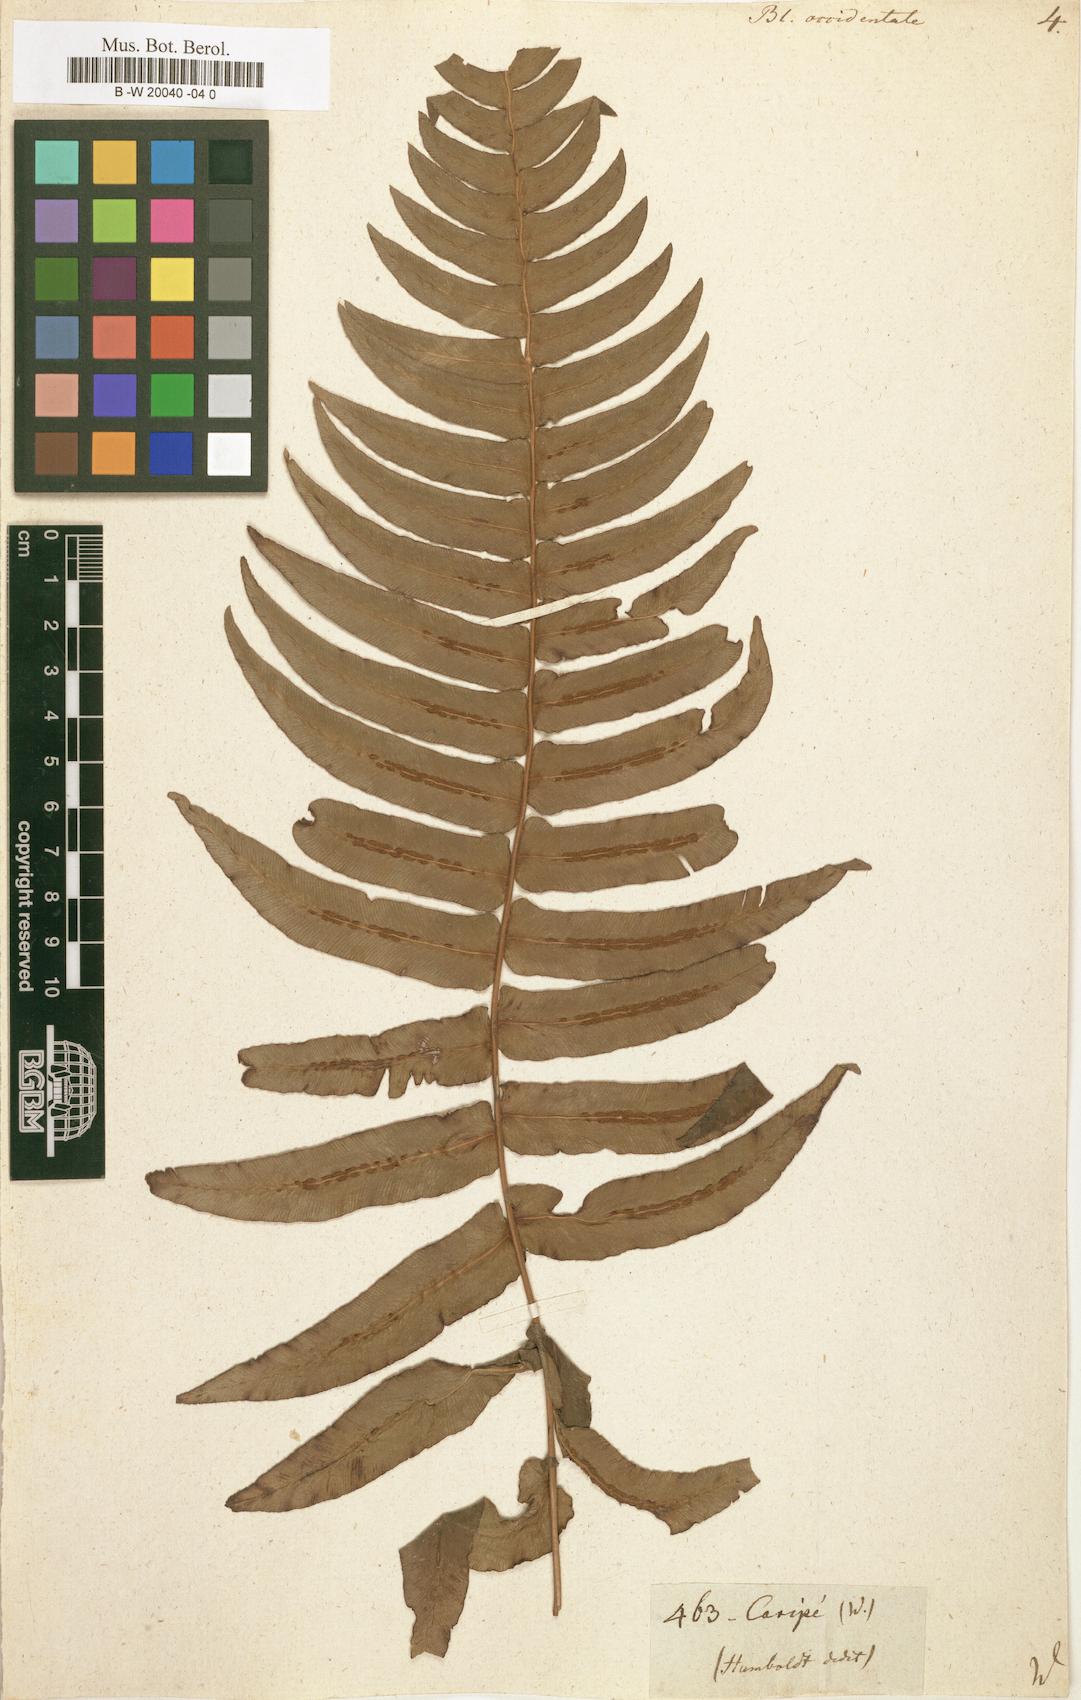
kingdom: Plantae
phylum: Tracheophyta
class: Polypodiopsida
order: Polypodiales
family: Blechnaceae
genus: Blechnum
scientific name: Blechnum occidentale
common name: Hammock fern
